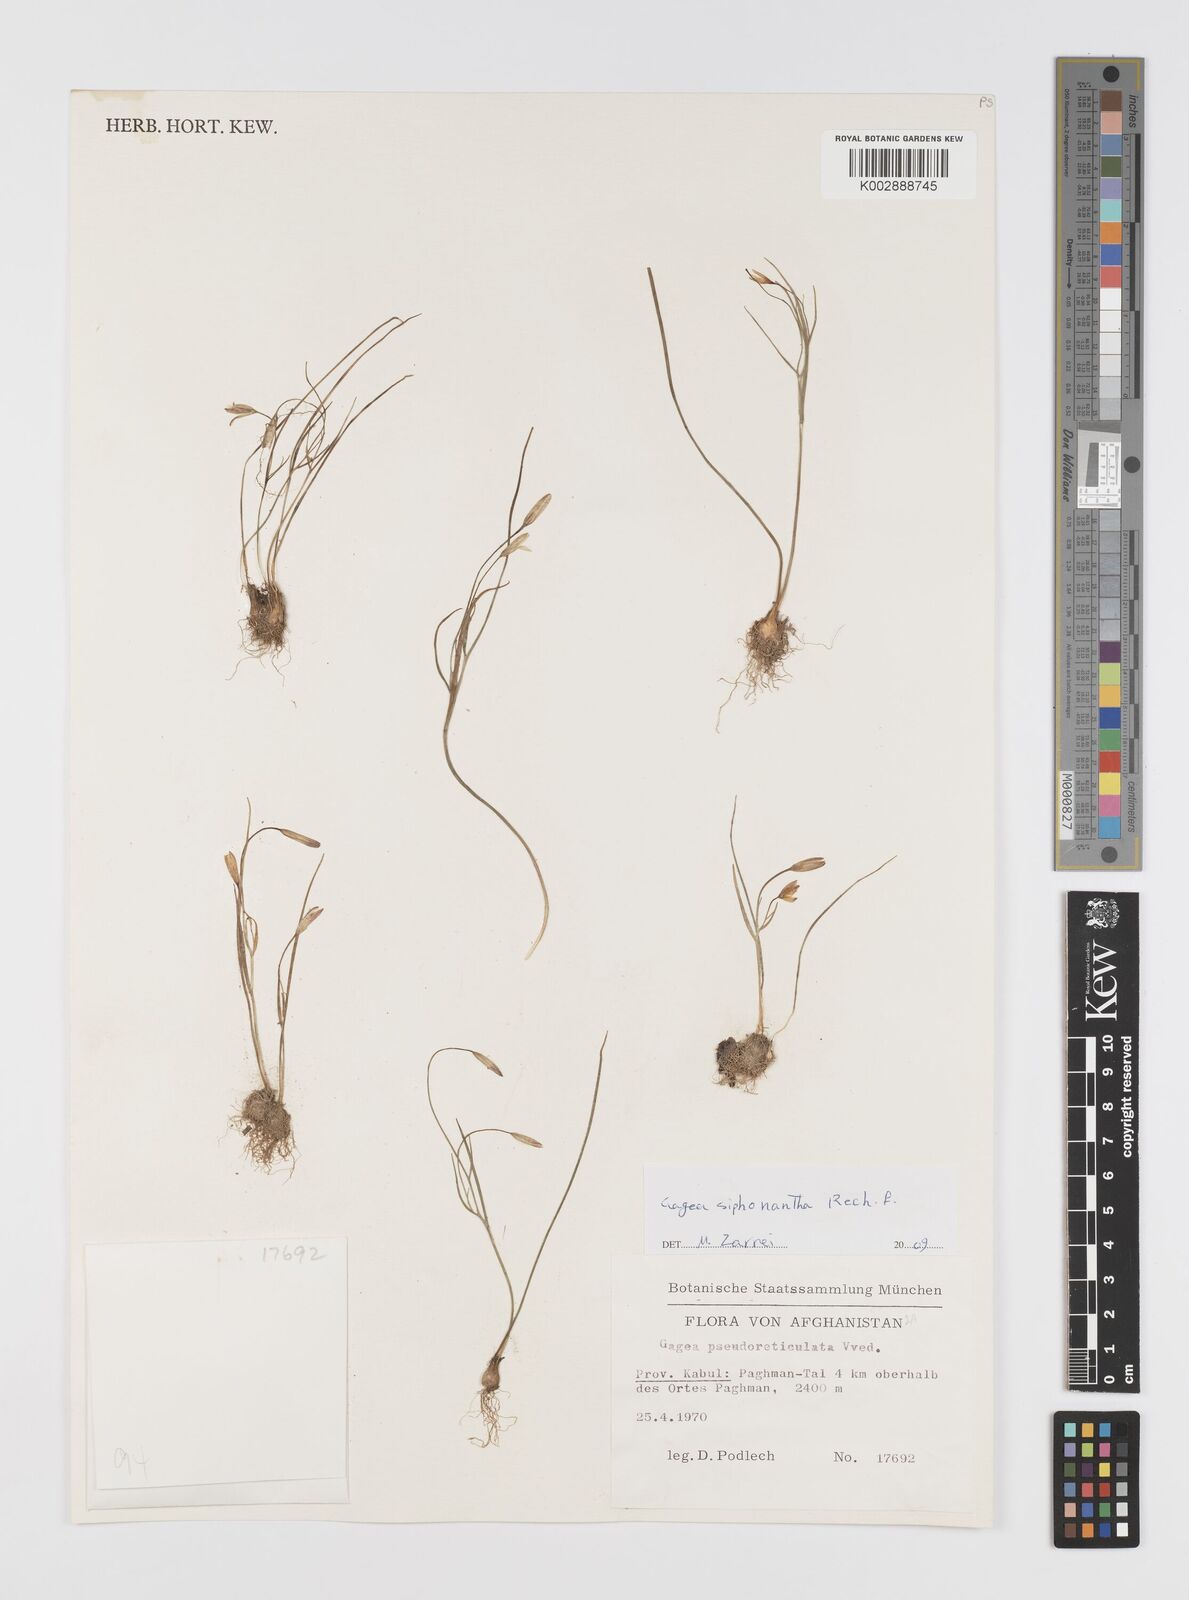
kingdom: Plantae
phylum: Tracheophyta
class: Liliopsida
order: Liliales
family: Liliaceae
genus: Gagea
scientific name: Gagea siphonantha
